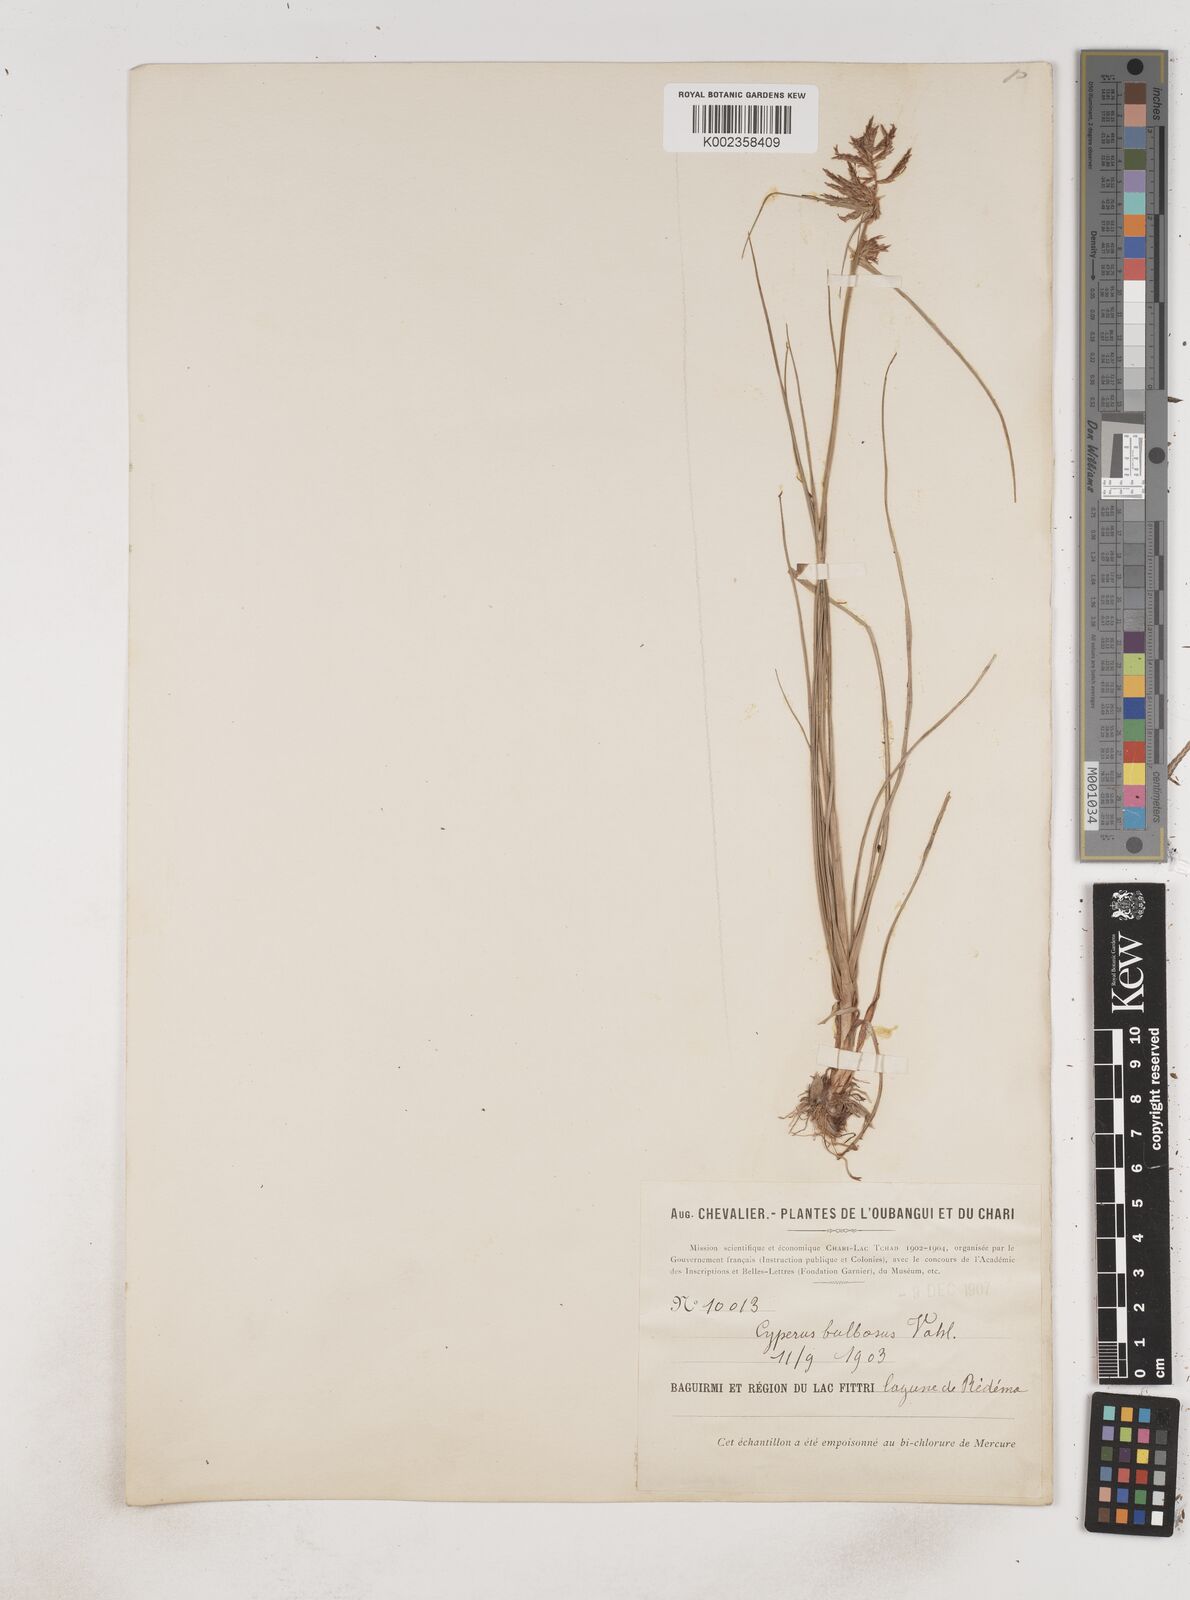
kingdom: Plantae
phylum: Tracheophyta
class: Liliopsida
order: Poales
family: Cyperaceae
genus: Cyperus
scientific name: Cyperus bulbosus
